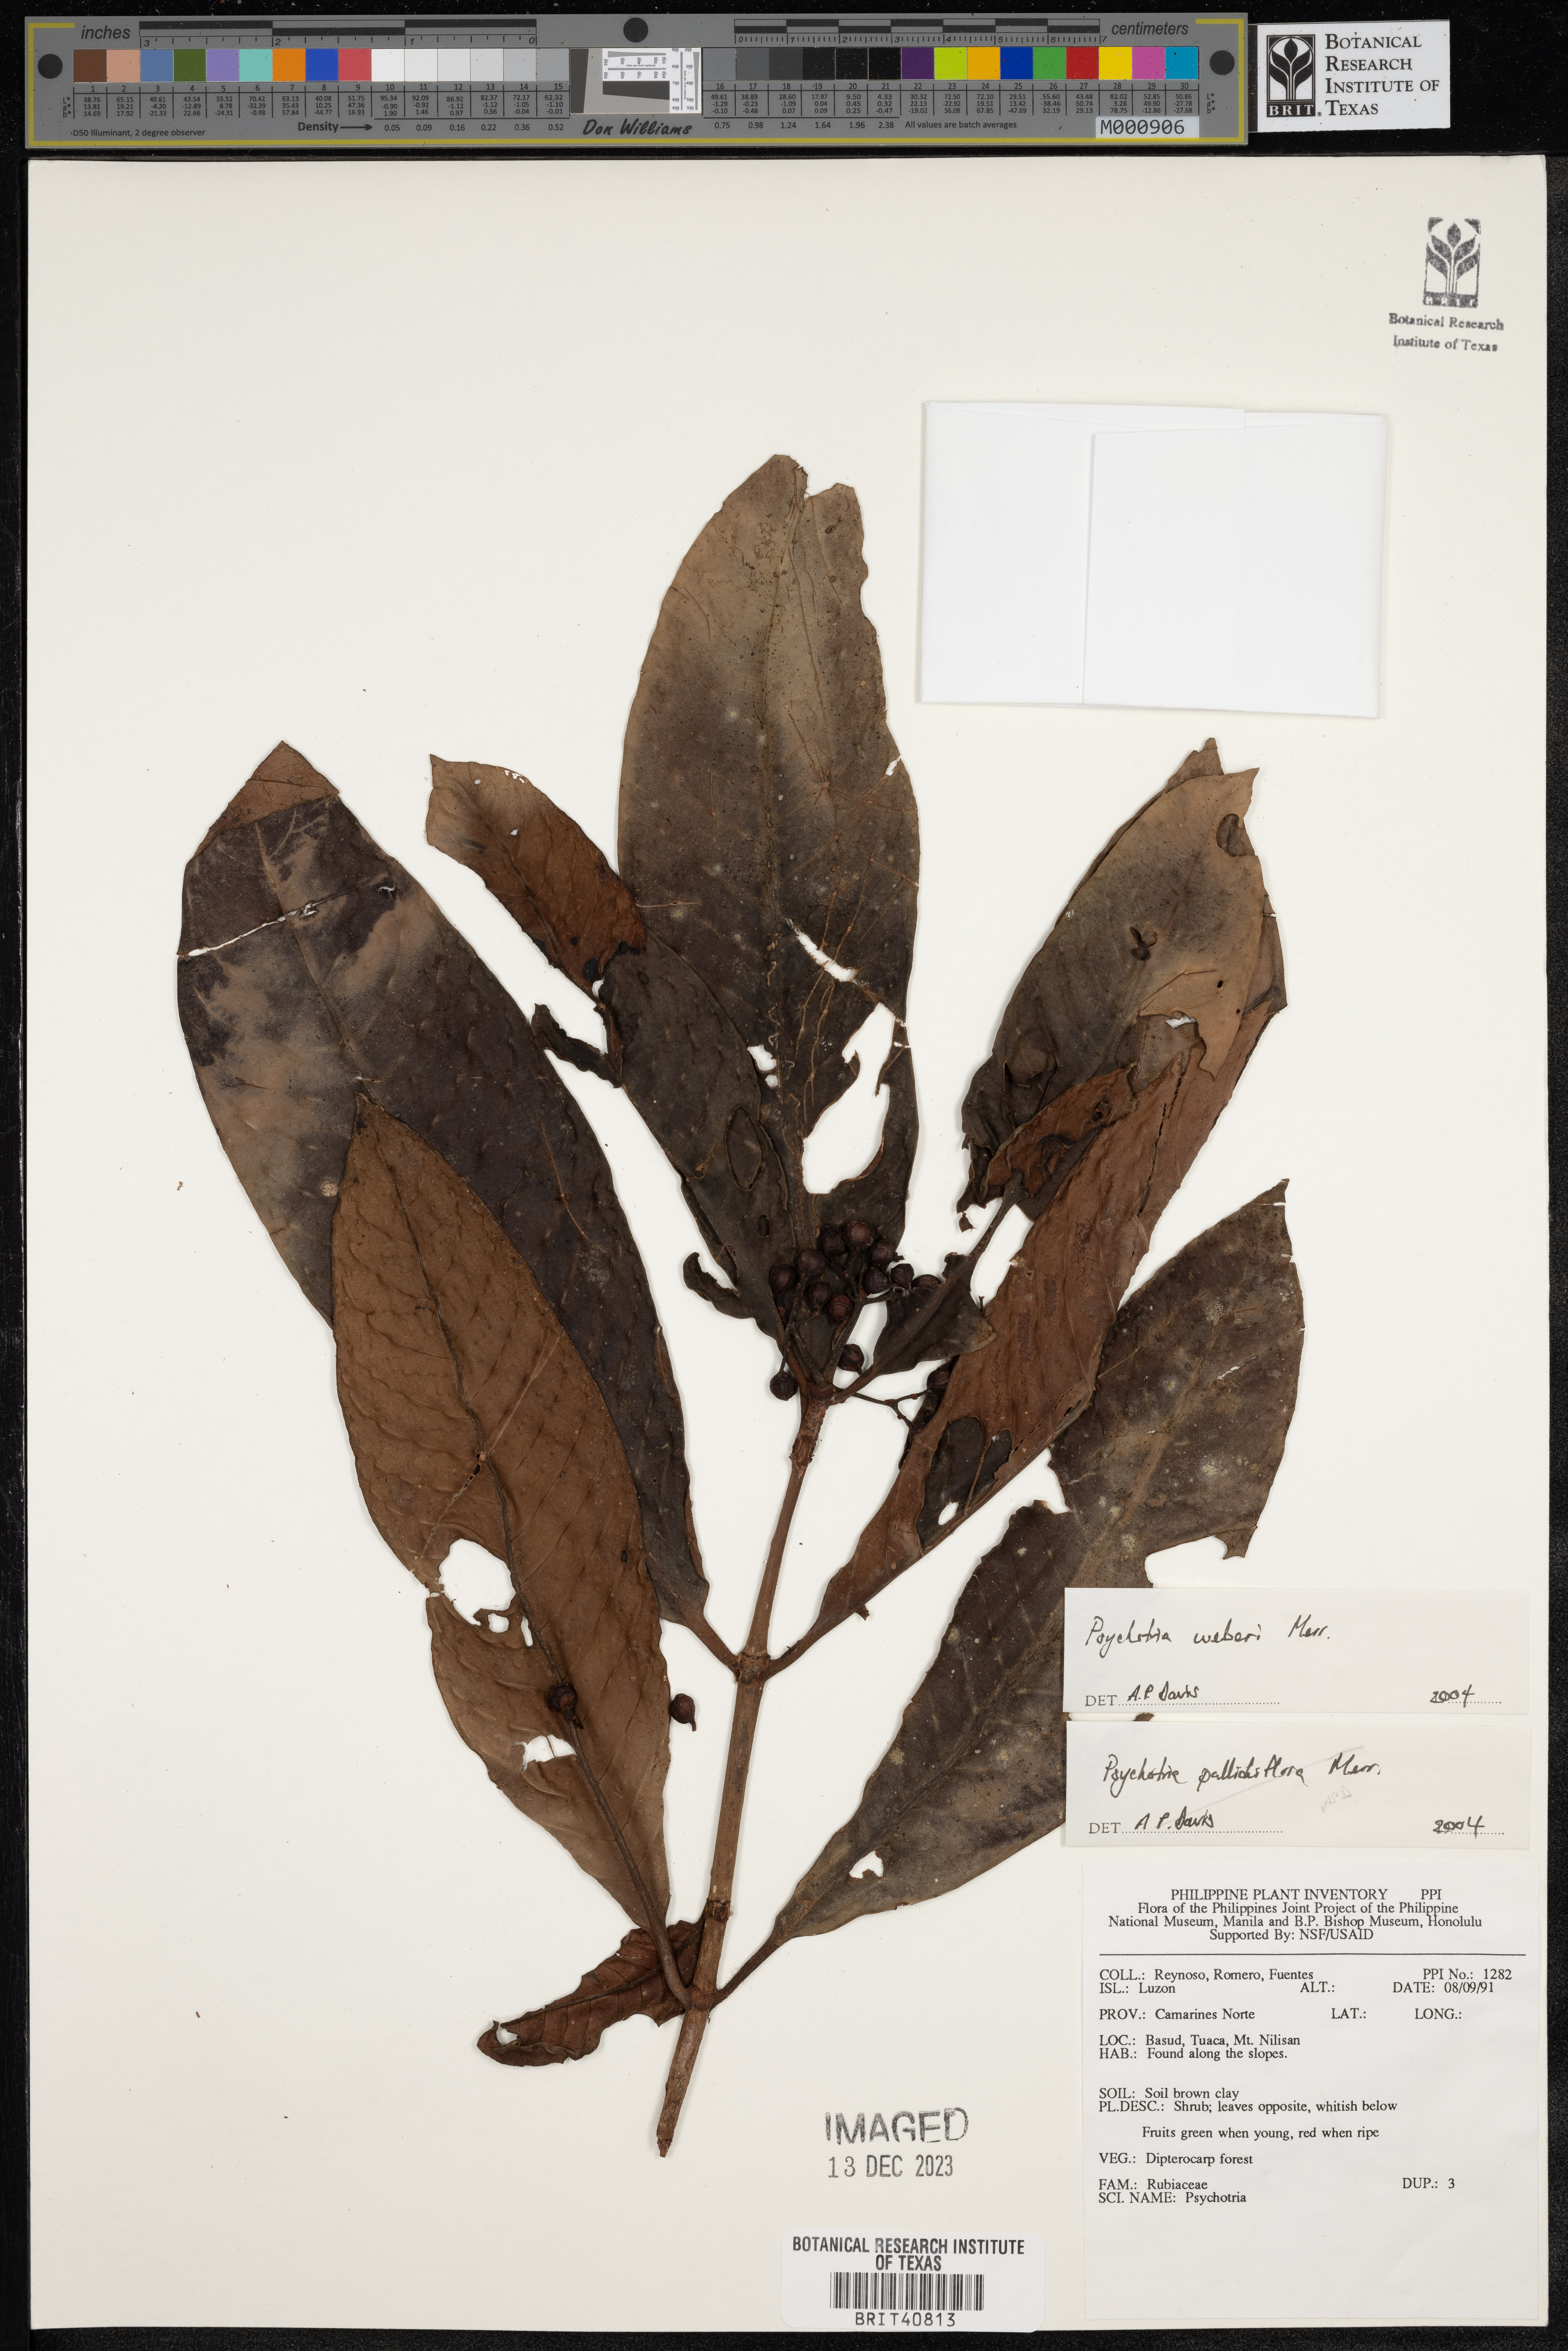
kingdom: Plantae
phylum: Tracheophyta
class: Magnoliopsida
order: Gentianales
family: Rubiaceae
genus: Psychotria
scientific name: Psychotria weberi
